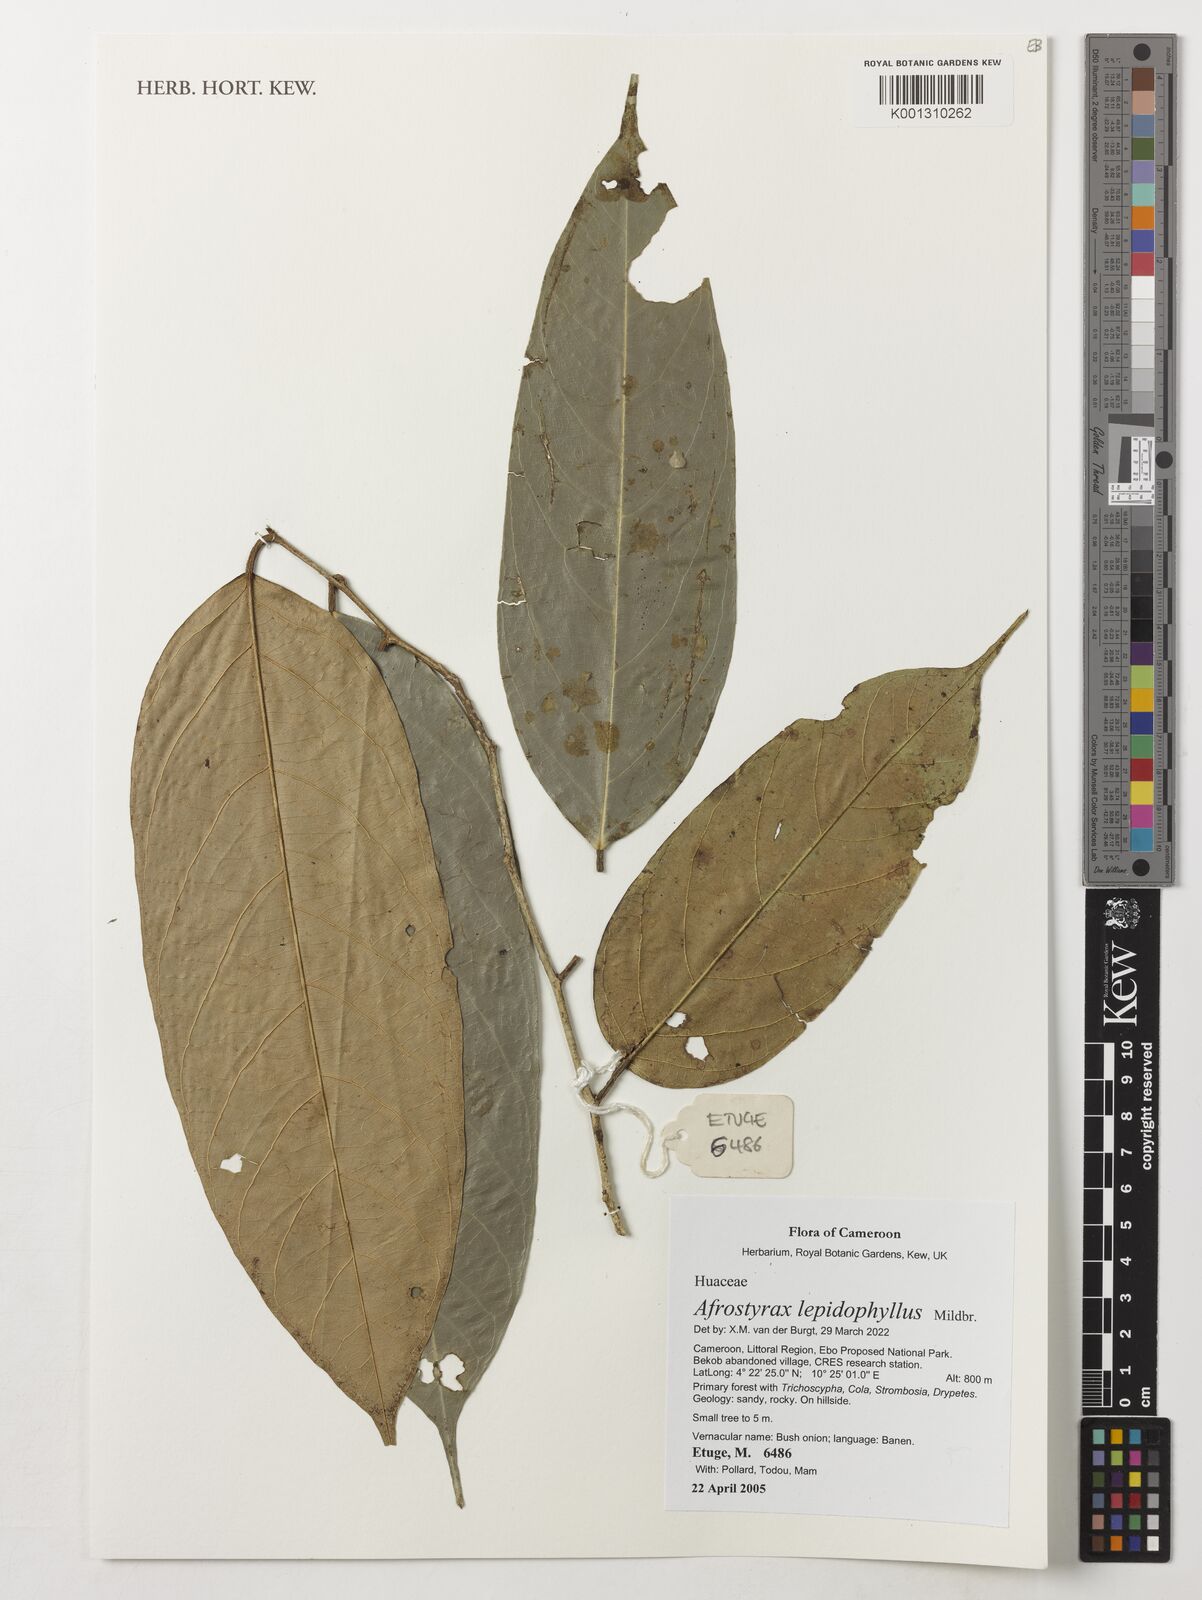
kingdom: Plantae
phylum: Tracheophyta
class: Magnoliopsida
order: Oxalidales
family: Huaceae
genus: Afrostyrax
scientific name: Afrostyrax lepidophyllus
